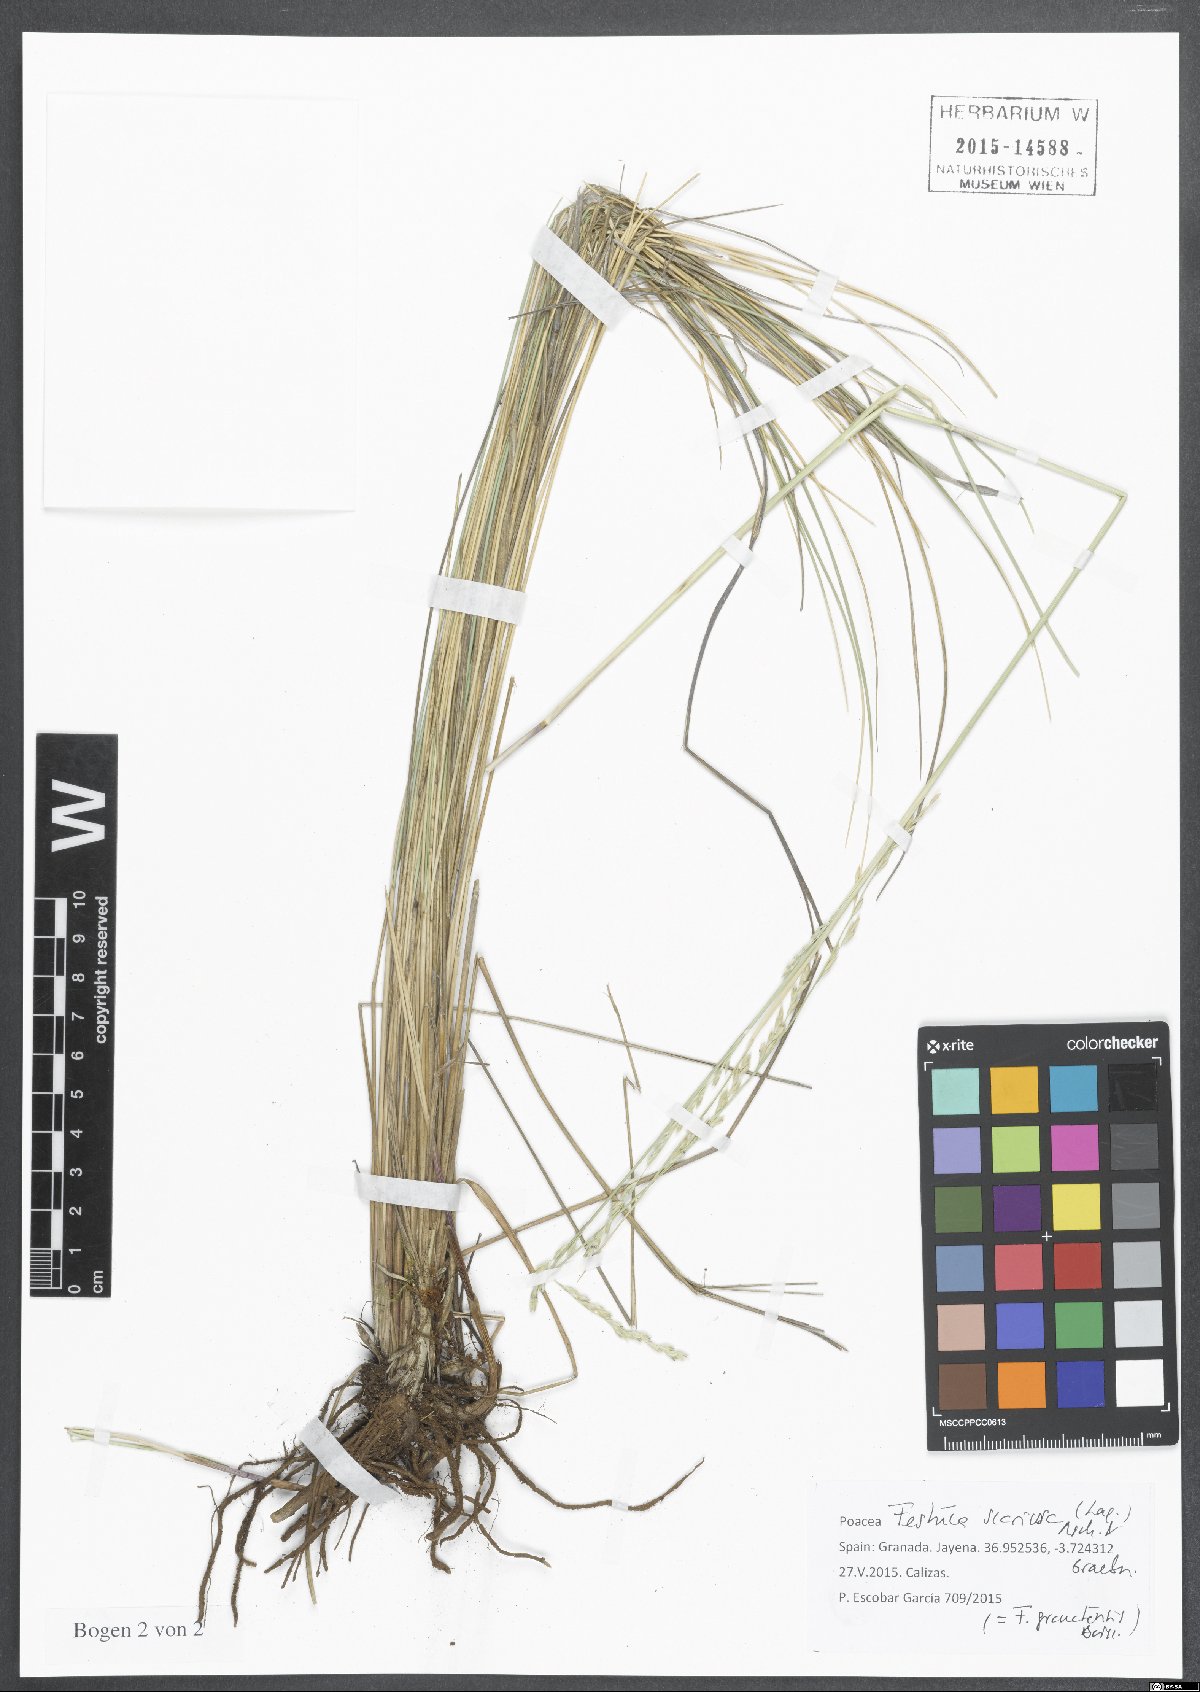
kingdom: Plantae
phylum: Tracheophyta
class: Liliopsida
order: Poales
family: Poaceae
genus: Festuca
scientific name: Festuca scariosa
